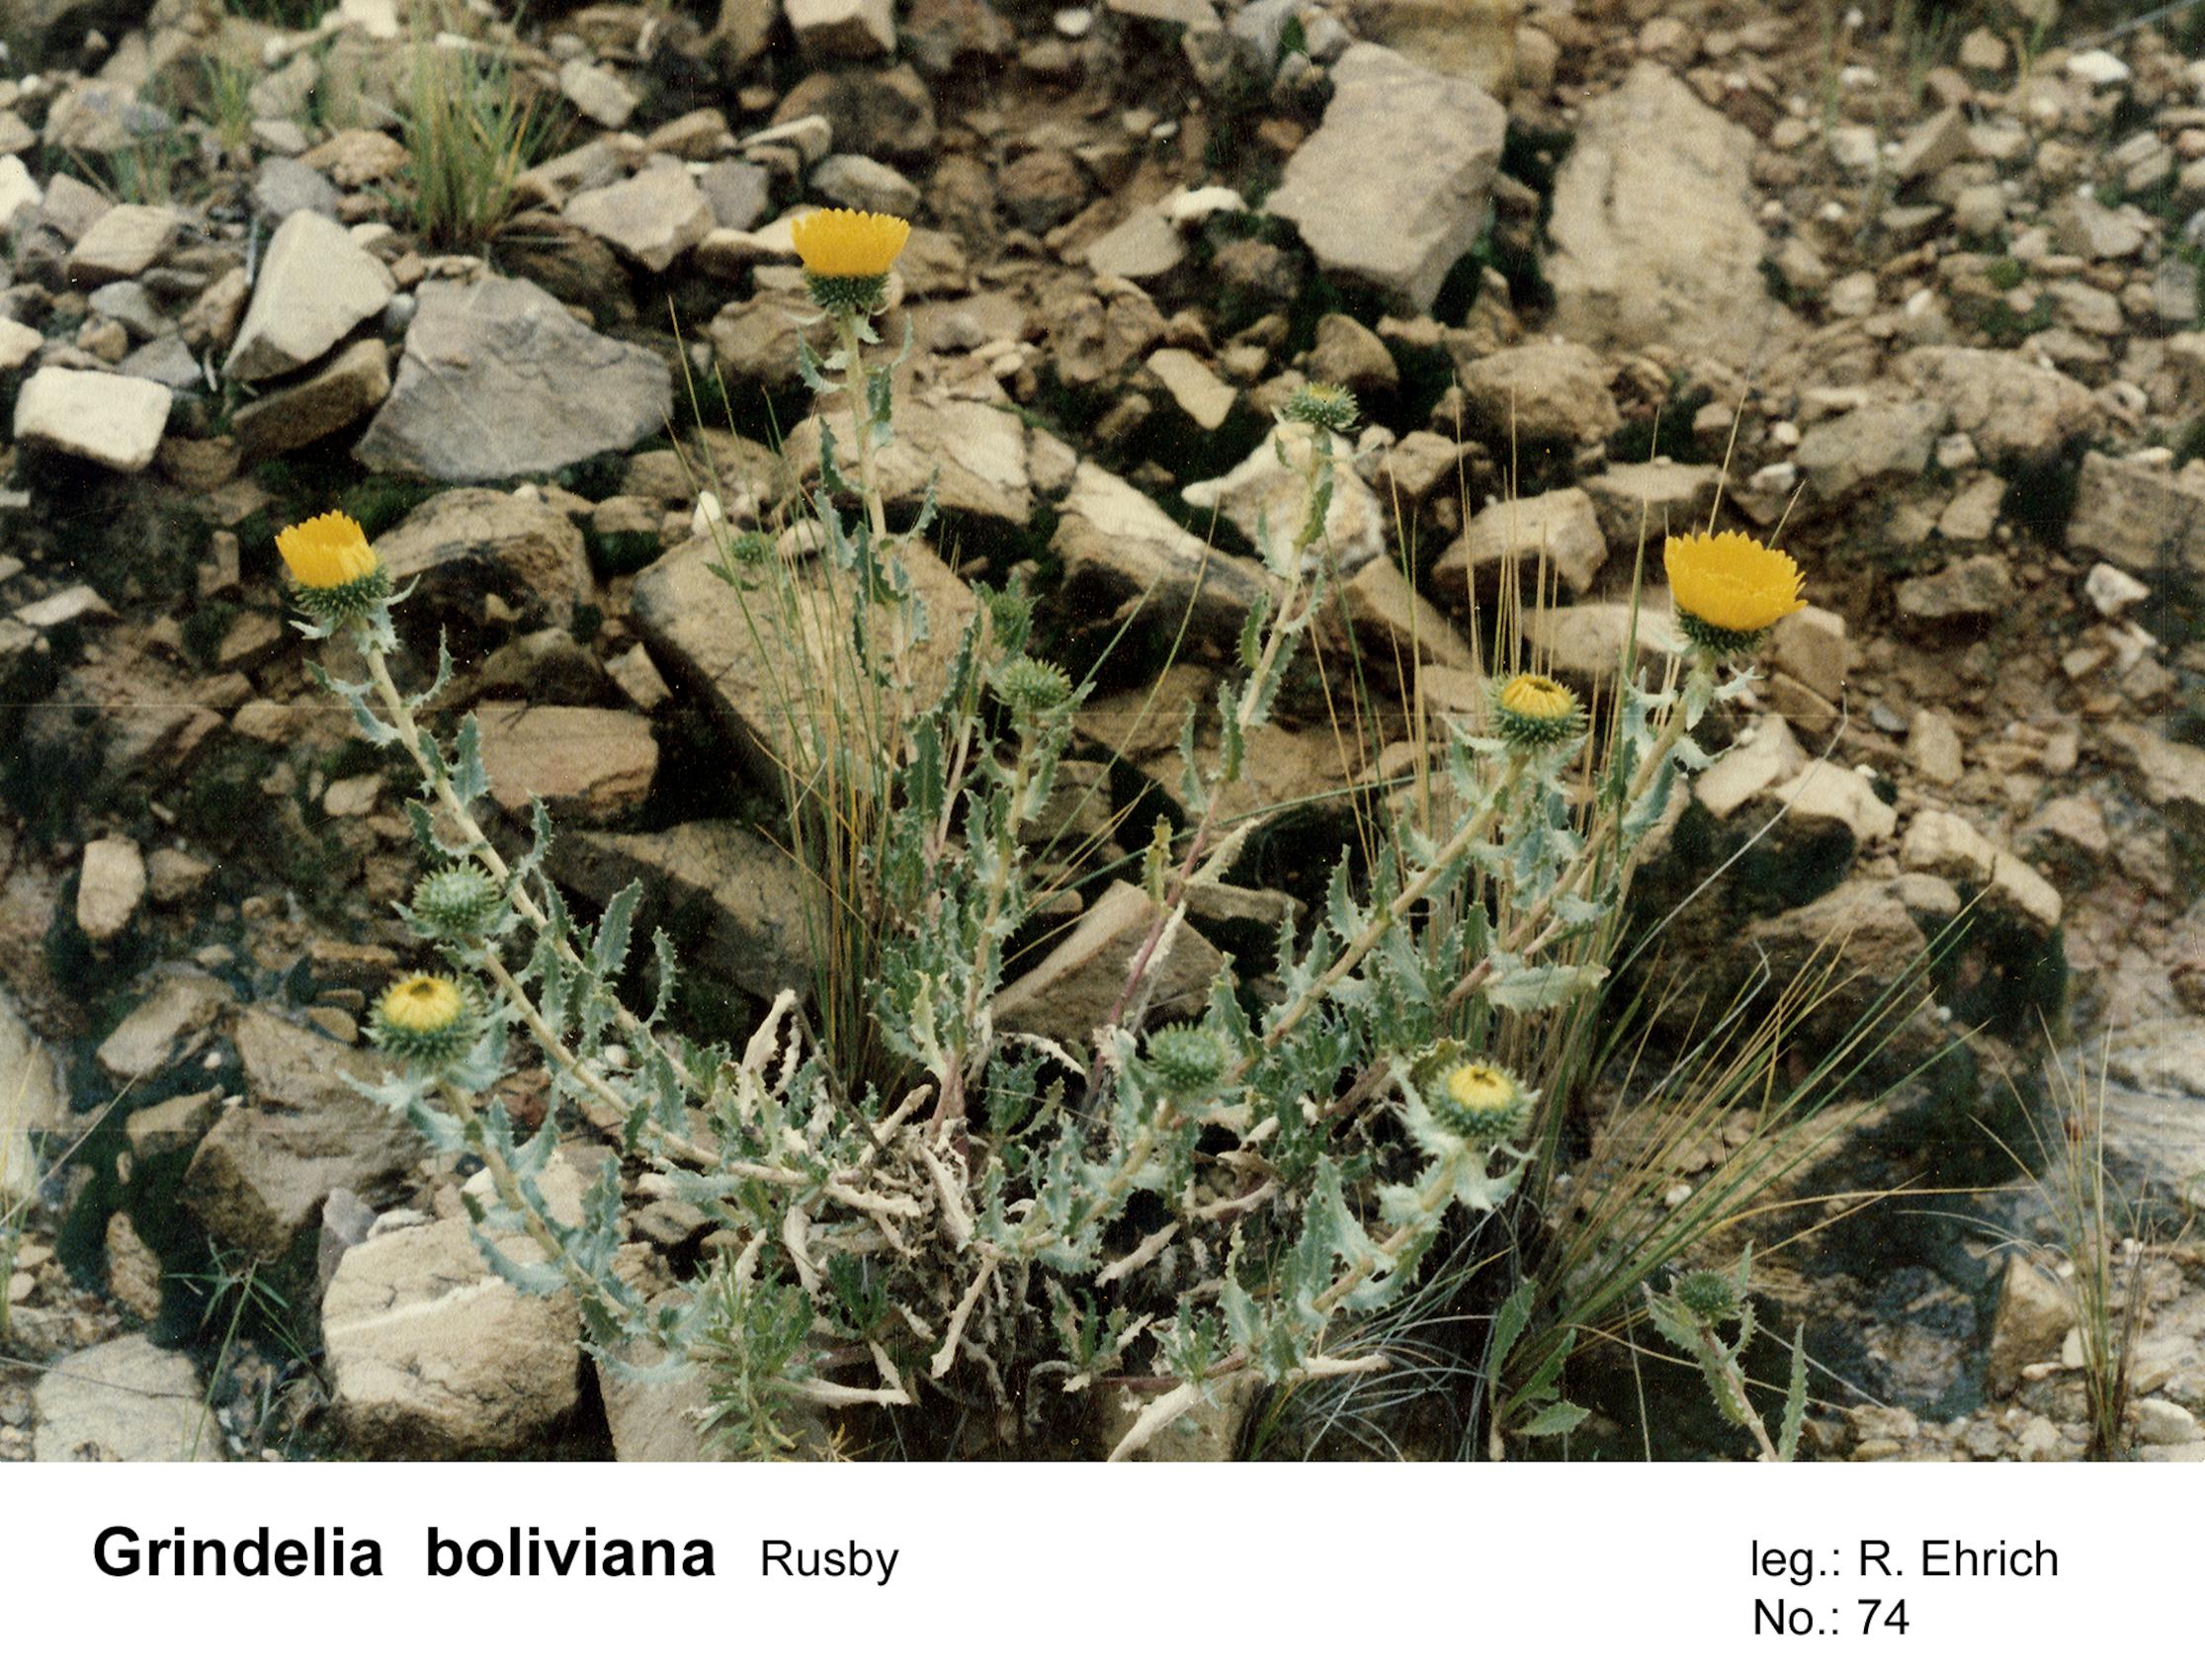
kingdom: Plantae
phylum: Tracheophyta
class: Magnoliopsida
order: Asterales
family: Asteraceae
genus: Grindelia
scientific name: Grindelia boliviana
